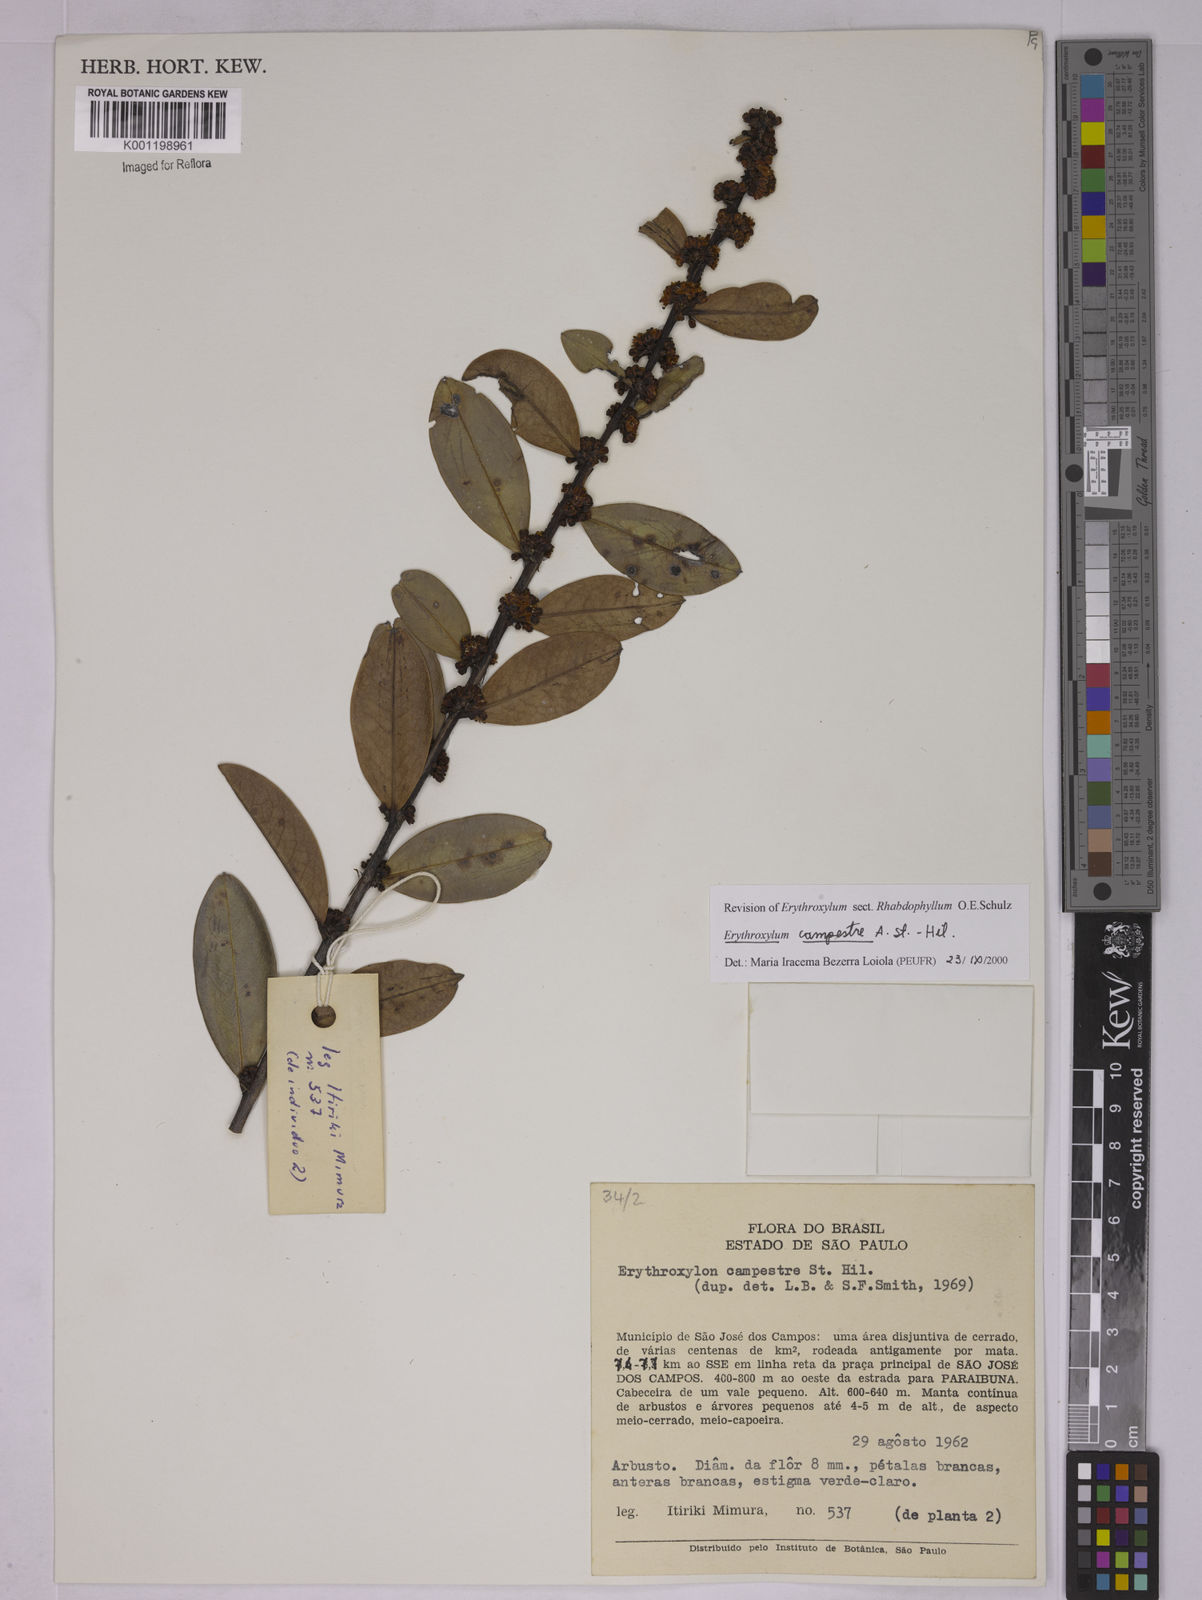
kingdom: Plantae
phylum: Tracheophyta
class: Magnoliopsida
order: Malpighiales
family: Erythroxylaceae
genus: Erythroxylum
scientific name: Erythroxylum campestre
